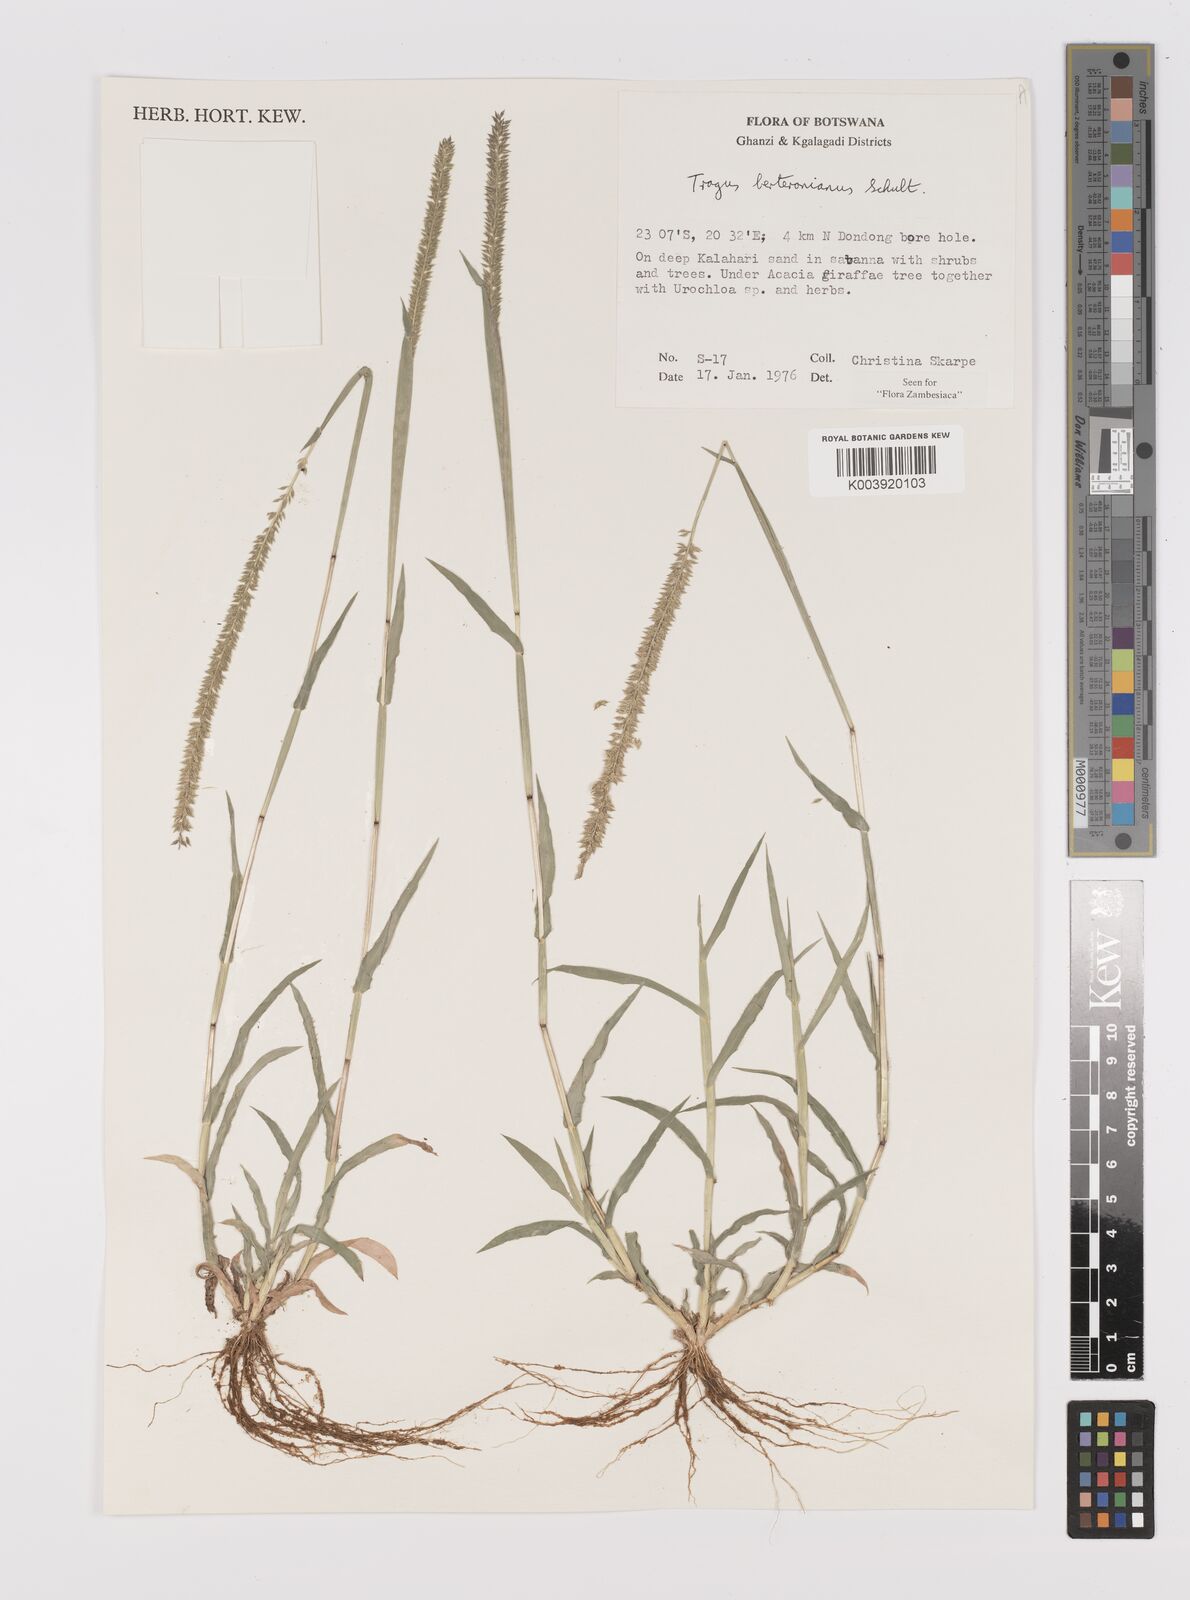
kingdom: Plantae
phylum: Tracheophyta
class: Liliopsida
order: Poales
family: Poaceae
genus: Tragus
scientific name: Tragus berteronianus
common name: African bur-grass
